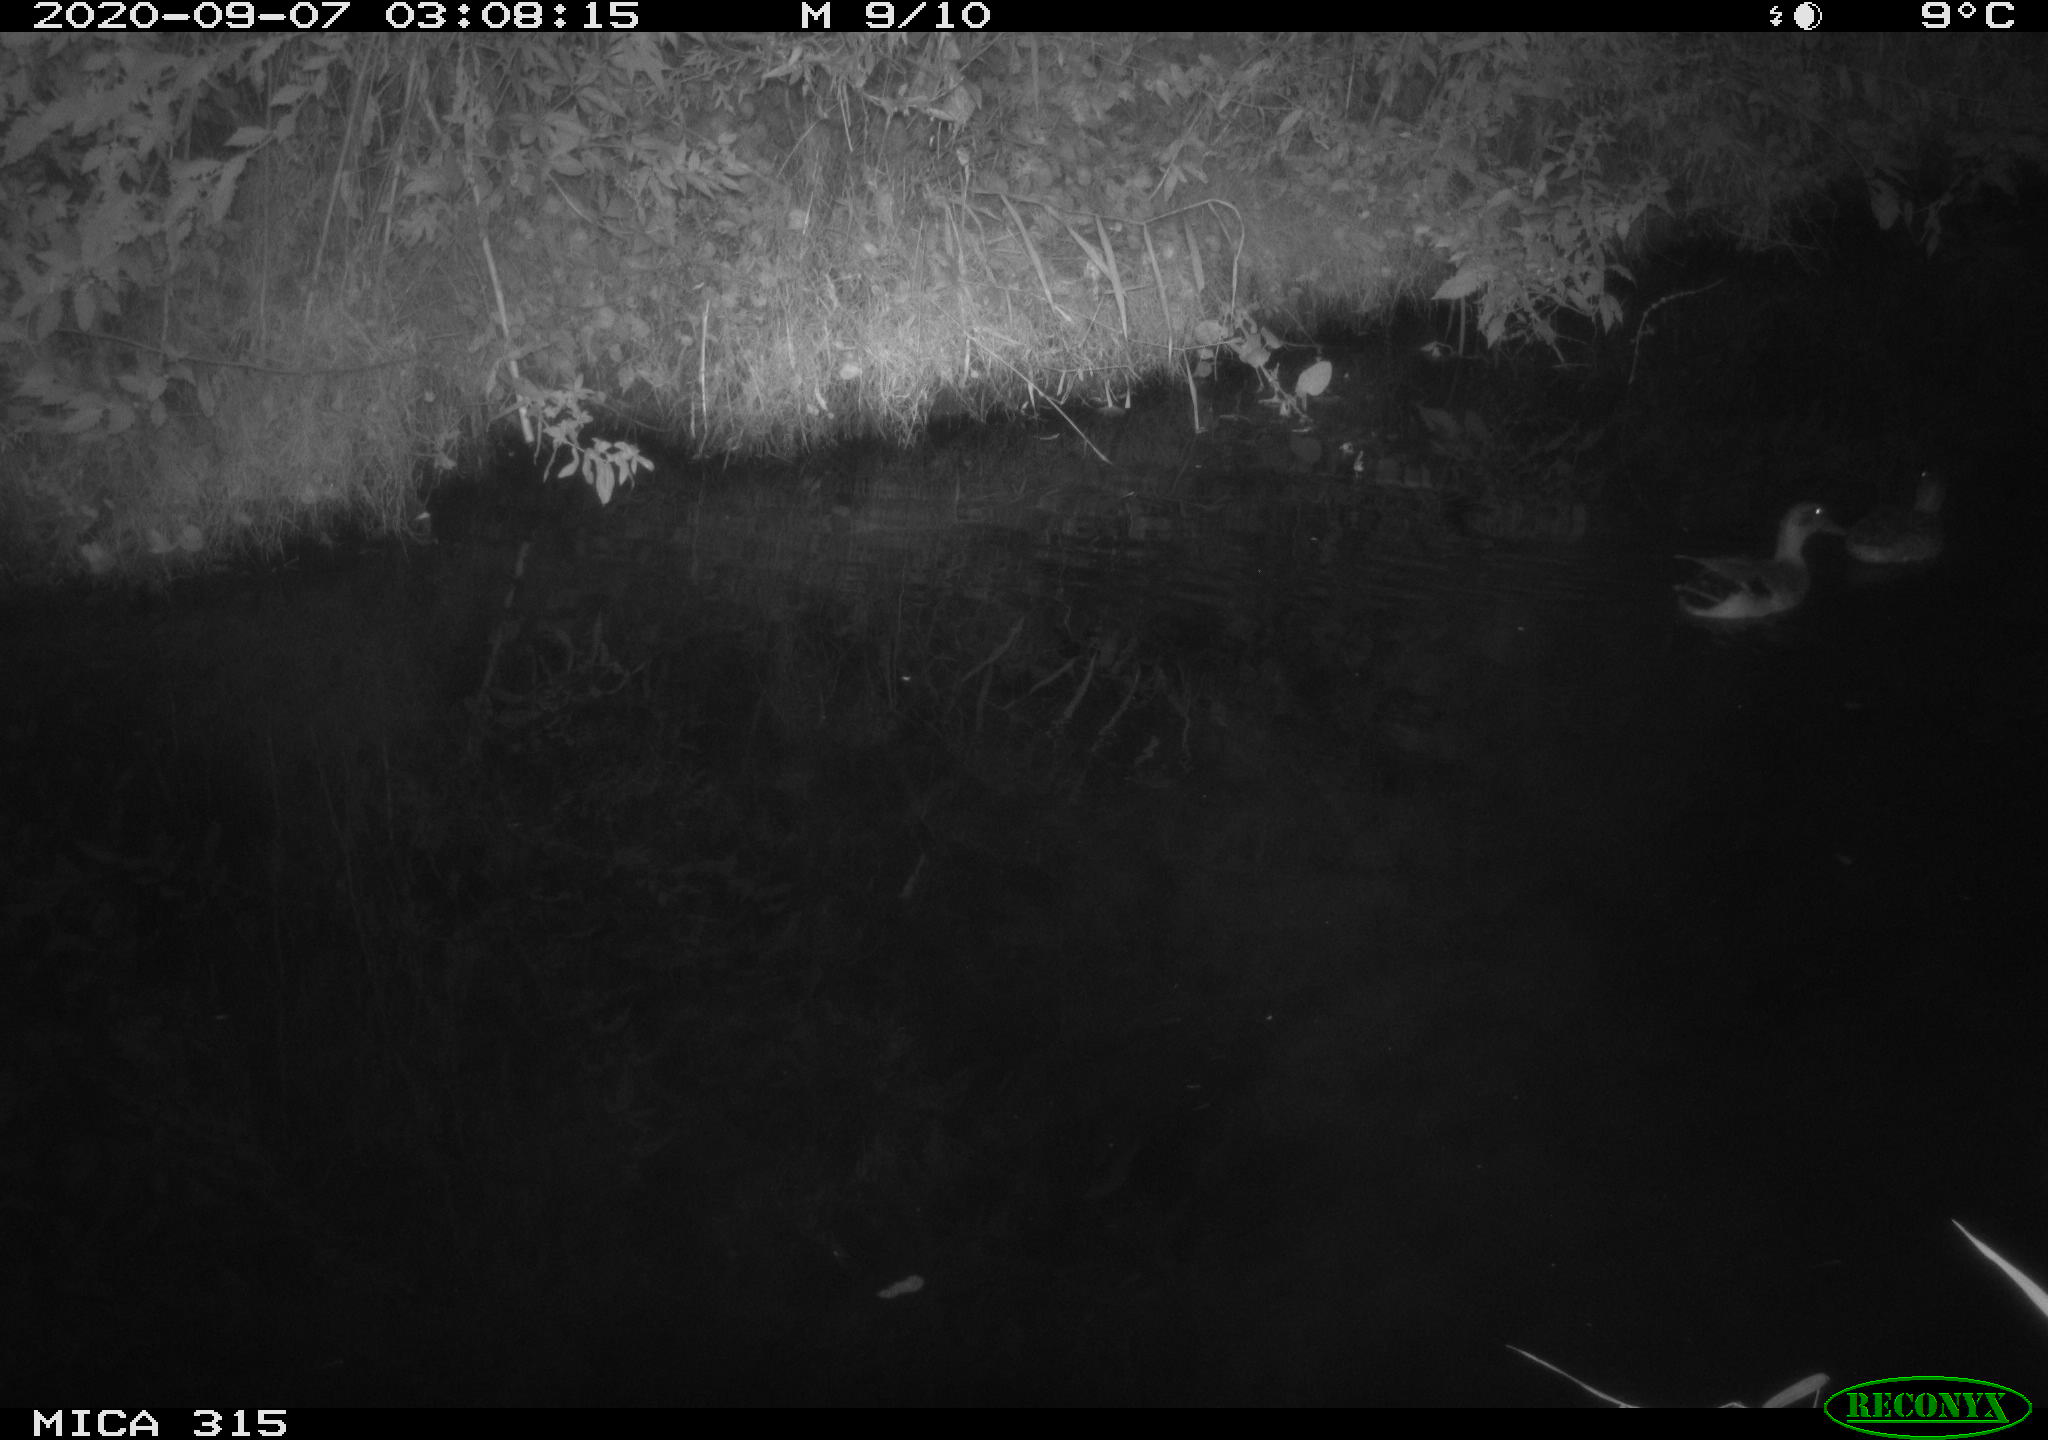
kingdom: Animalia
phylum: Chordata
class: Aves
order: Anseriformes
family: Anatidae
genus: Anas
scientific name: Anas platyrhynchos
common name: Mallard
